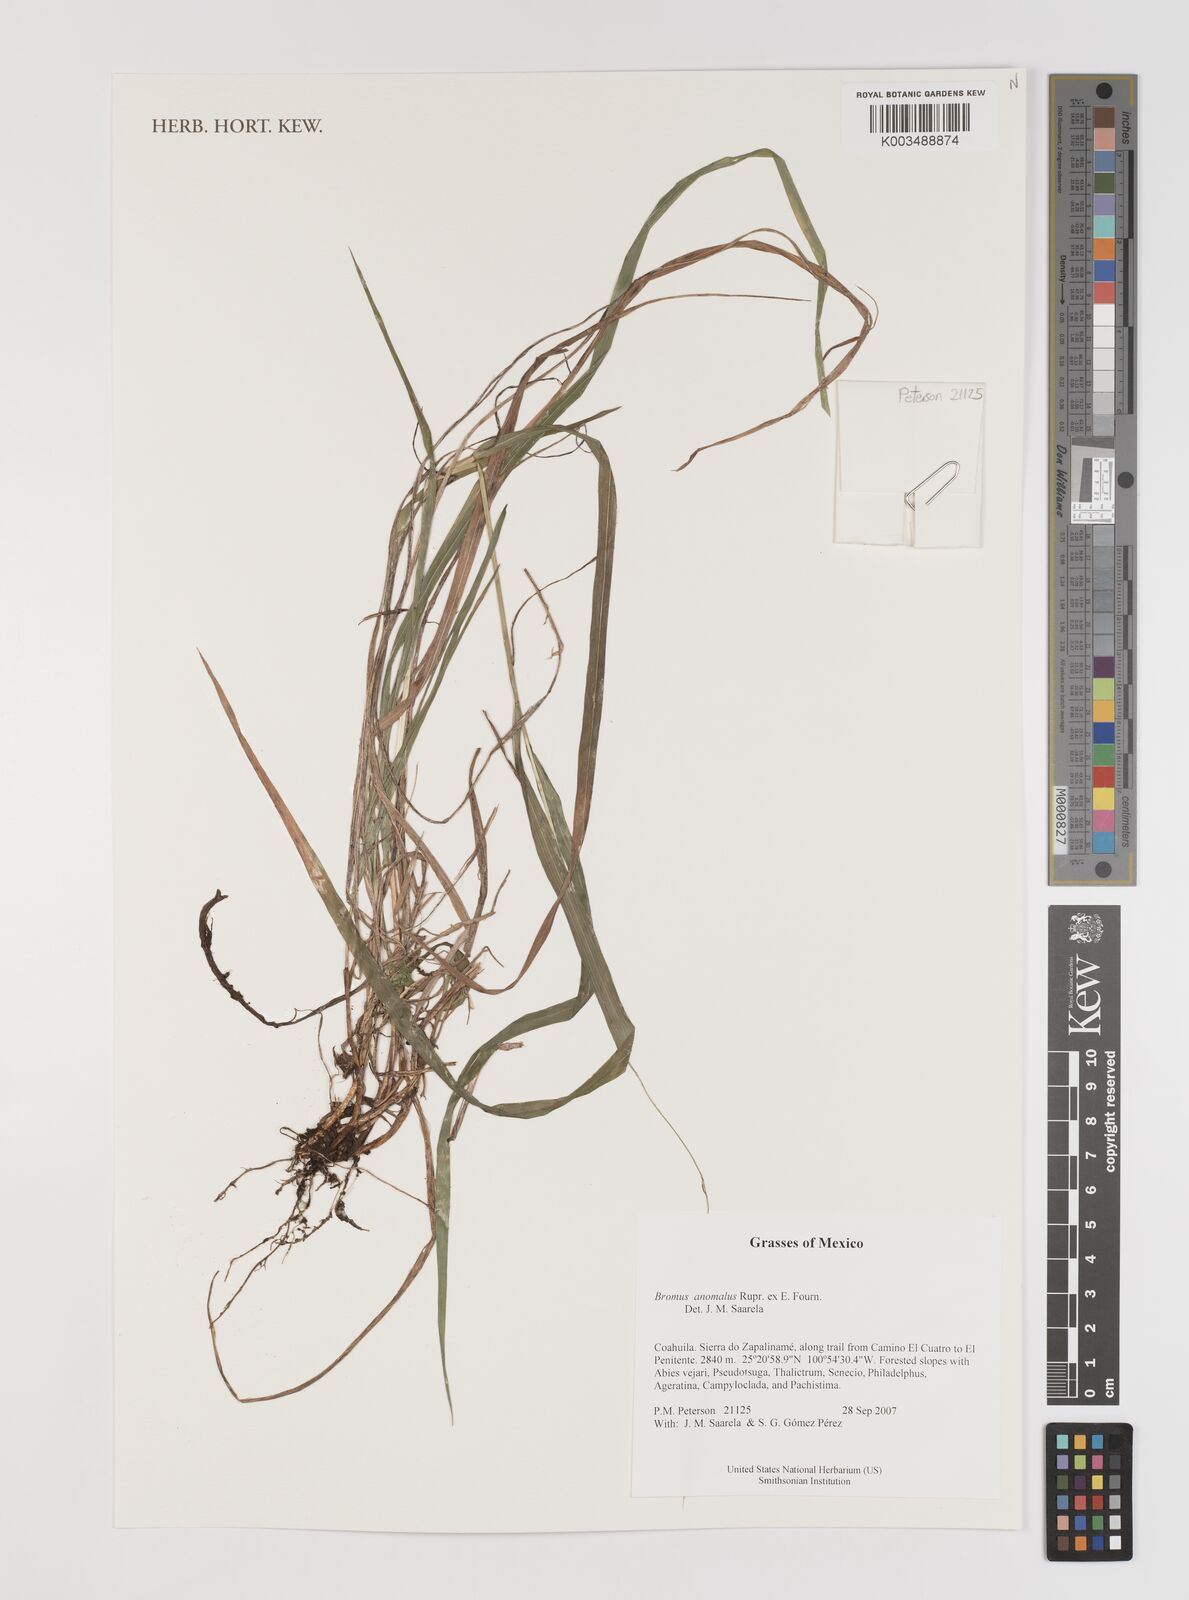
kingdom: Plantae
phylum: Tracheophyta
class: Liliopsida
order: Poales
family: Poaceae
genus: Bromus
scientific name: Bromus anomalus
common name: Nodding brome
